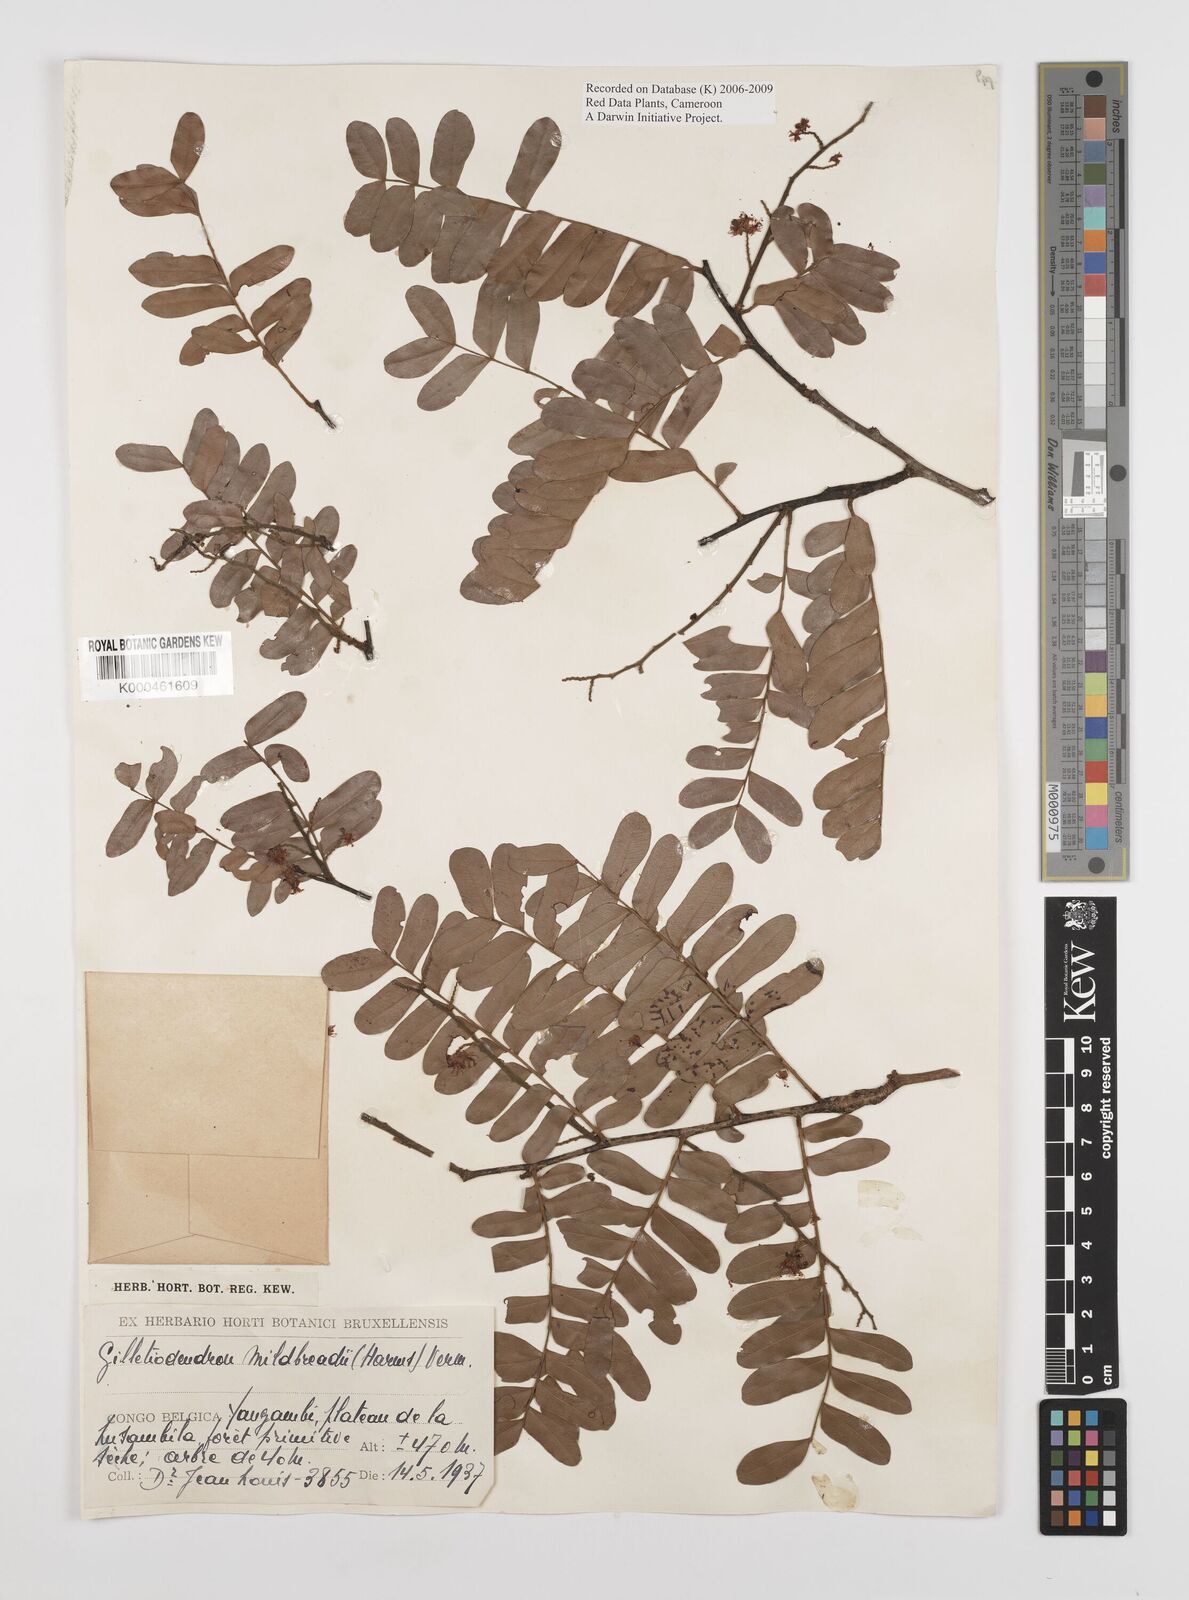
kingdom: Plantae
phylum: Tracheophyta
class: Magnoliopsida
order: Fabales
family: Fabaceae
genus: Gilletiodendron
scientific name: Gilletiodendron mildbraedii
